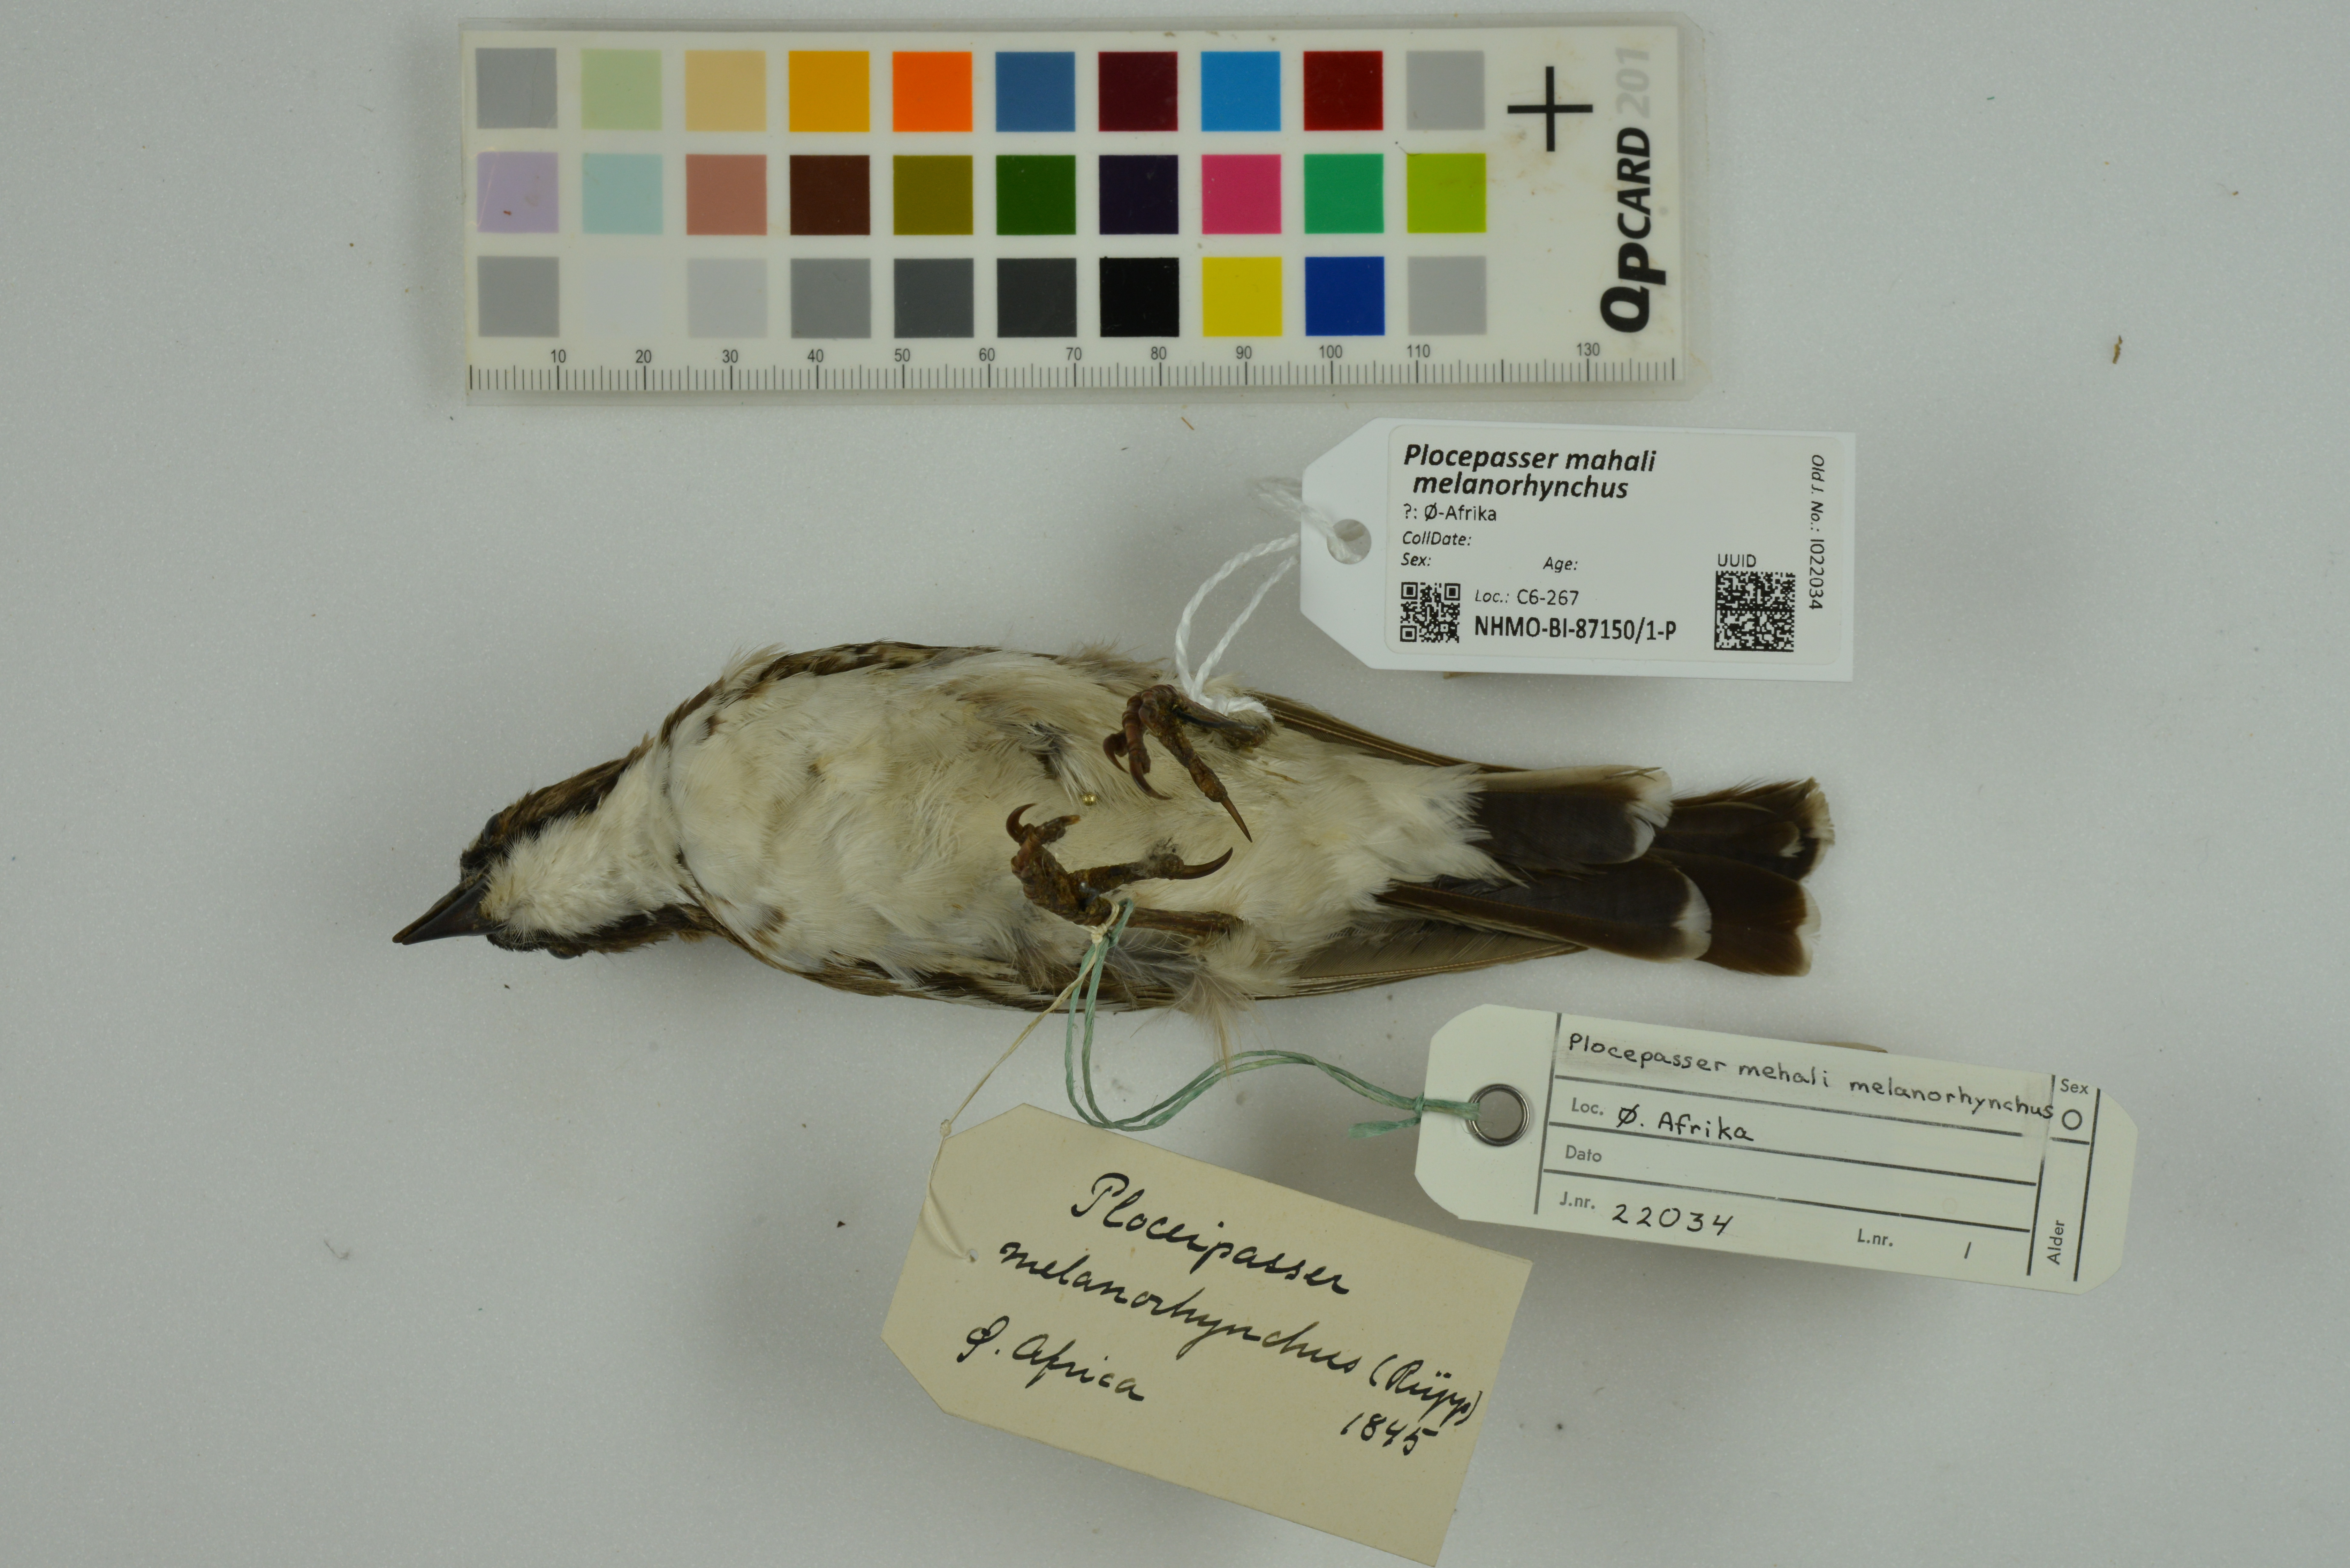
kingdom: Animalia
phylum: Chordata
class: Aves
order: Passeriformes
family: Passeridae
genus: Plocepasser
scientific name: Plocepasser mahali
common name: White-browed sparrow-weaver
